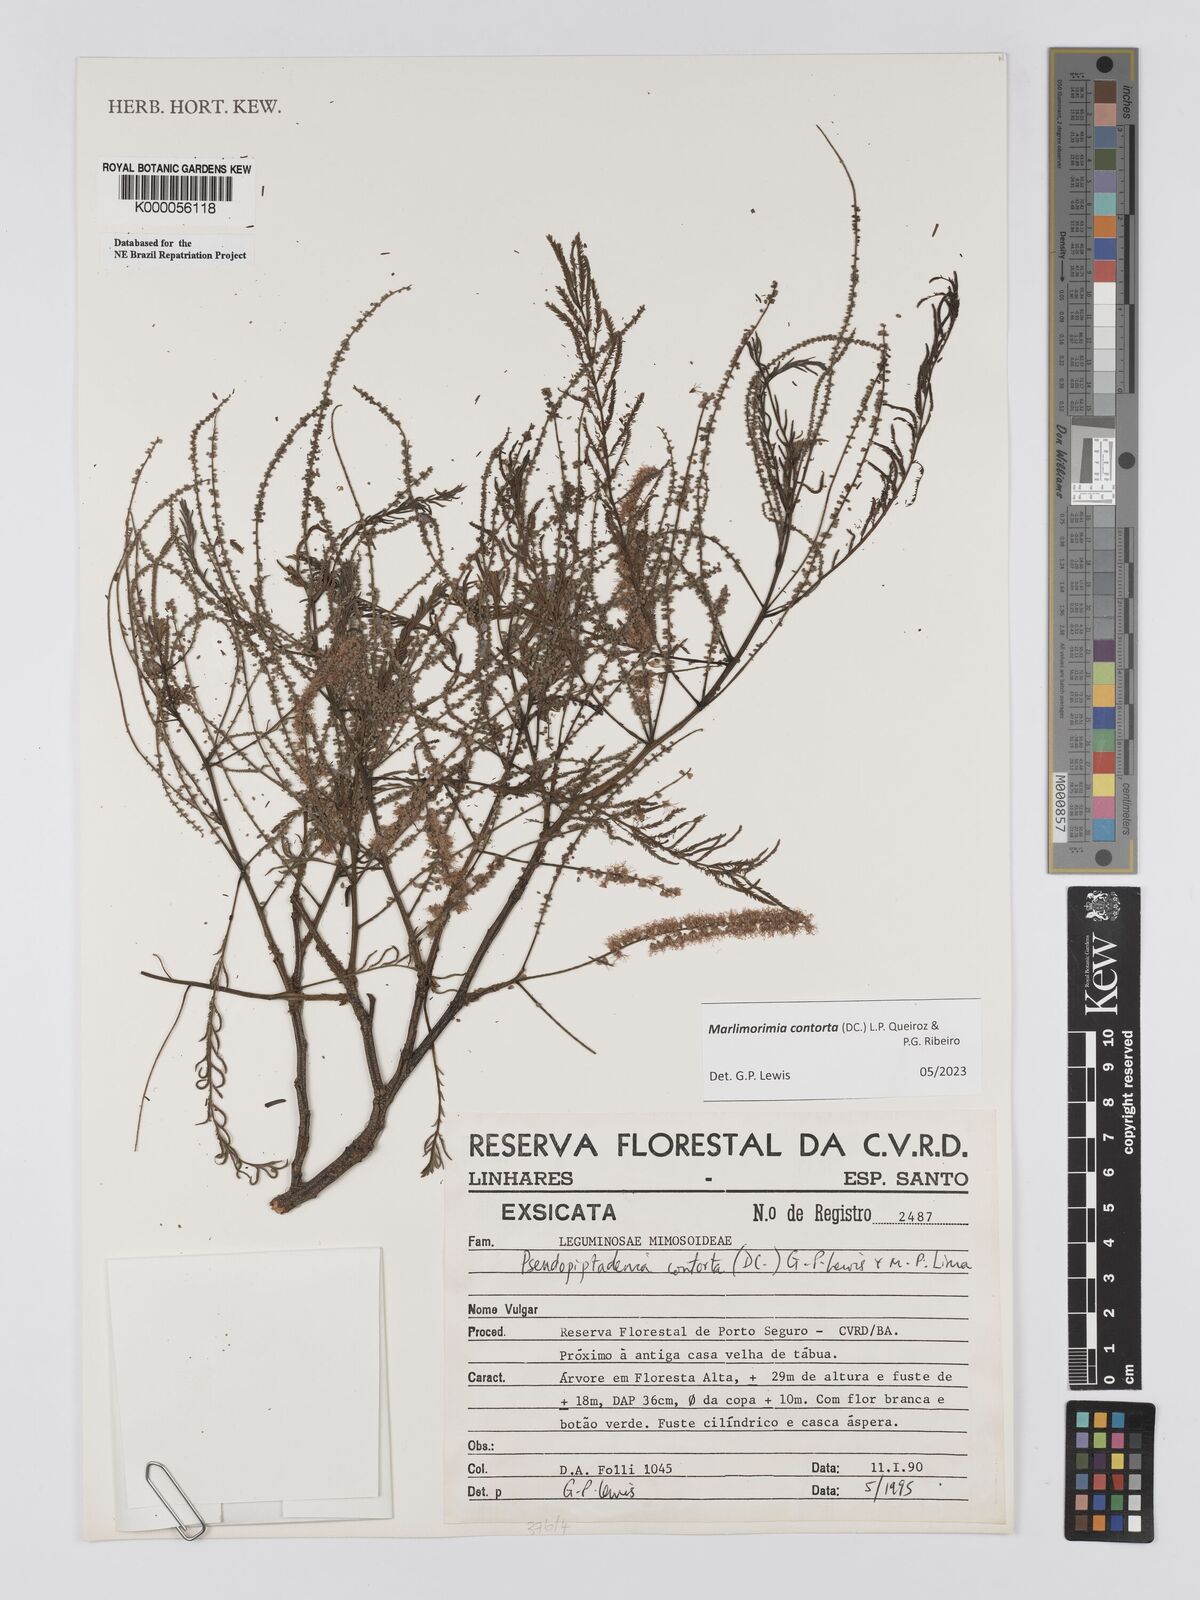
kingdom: Plantae
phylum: Tracheophyta
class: Magnoliopsida
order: Fabales
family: Fabaceae
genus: Pseudopiptadenia
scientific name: Pseudopiptadenia contorta
